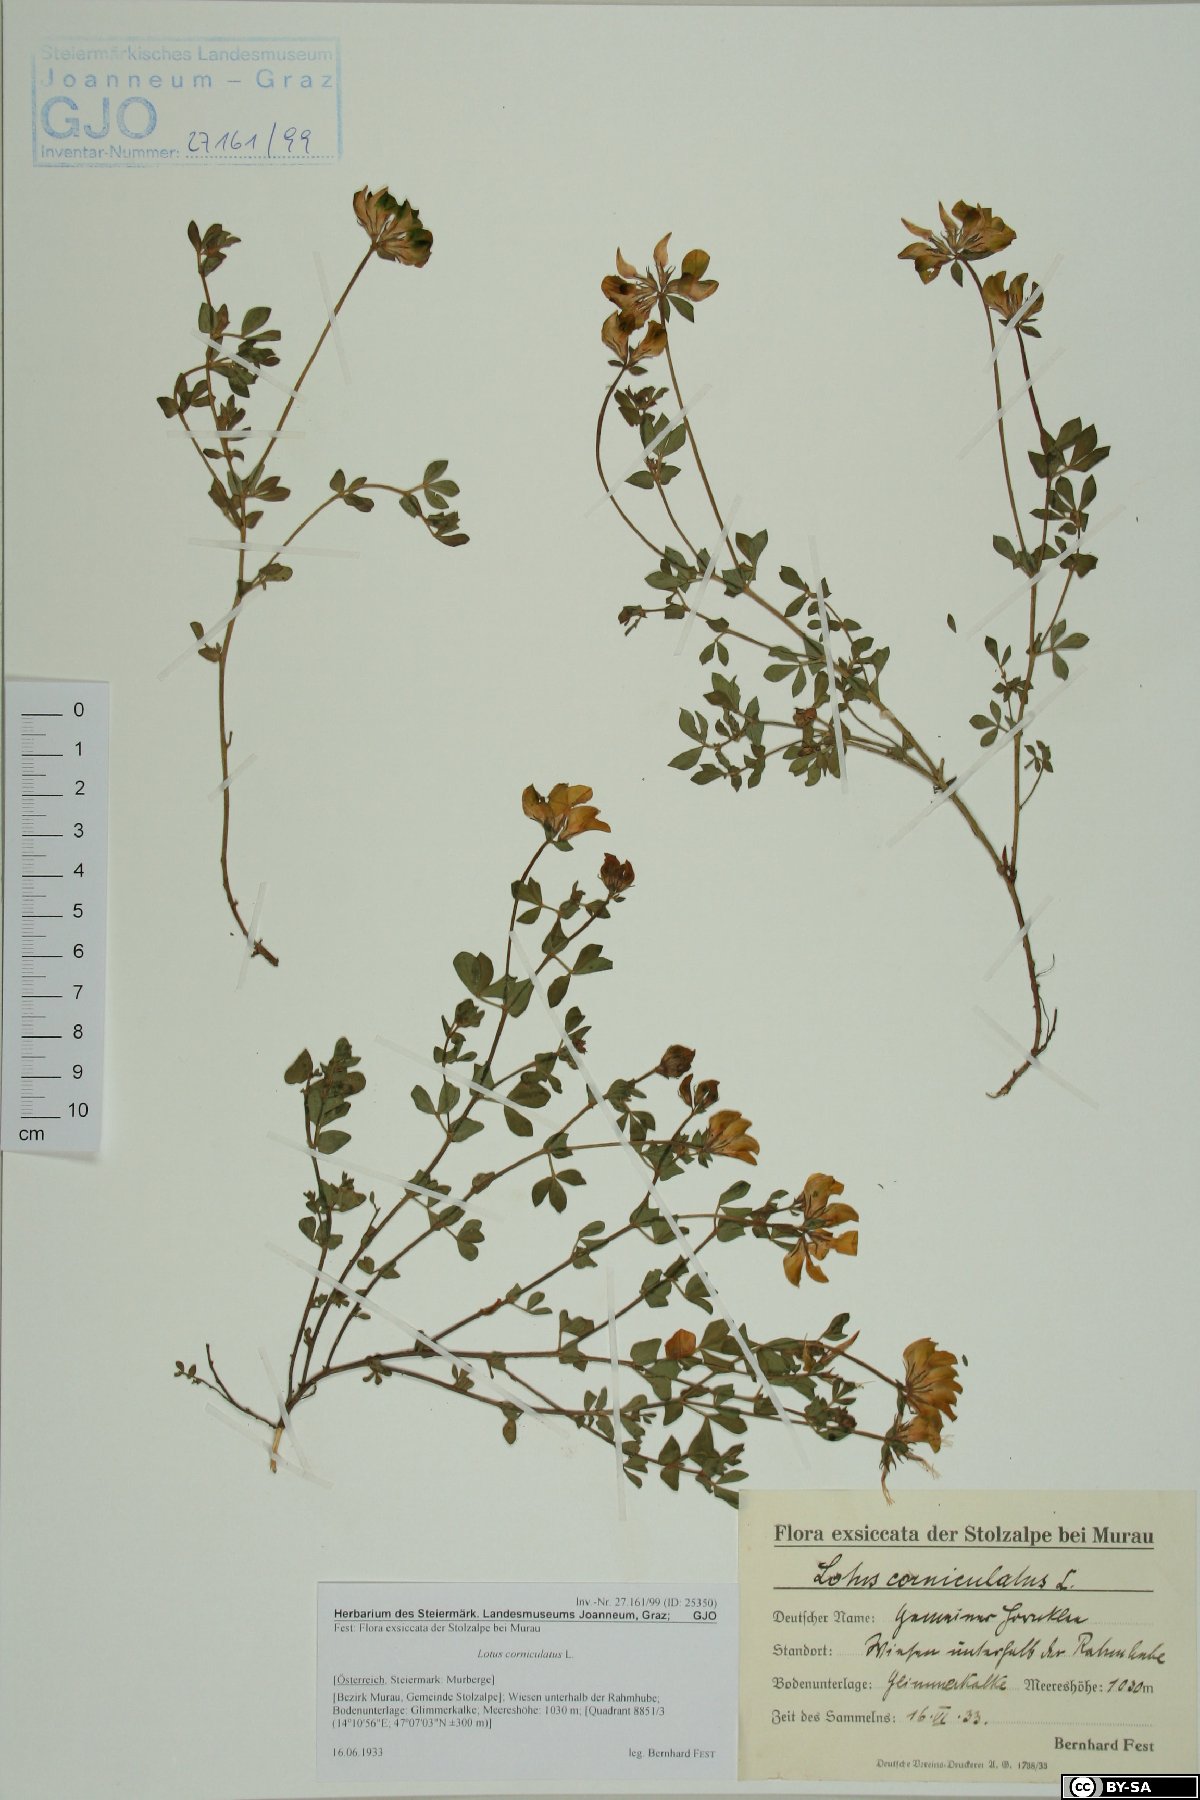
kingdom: Plantae
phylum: Tracheophyta
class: Magnoliopsida
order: Fabales
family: Fabaceae
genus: Lotus
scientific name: Lotus corniculatus
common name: Common bird's-foot-trefoil
